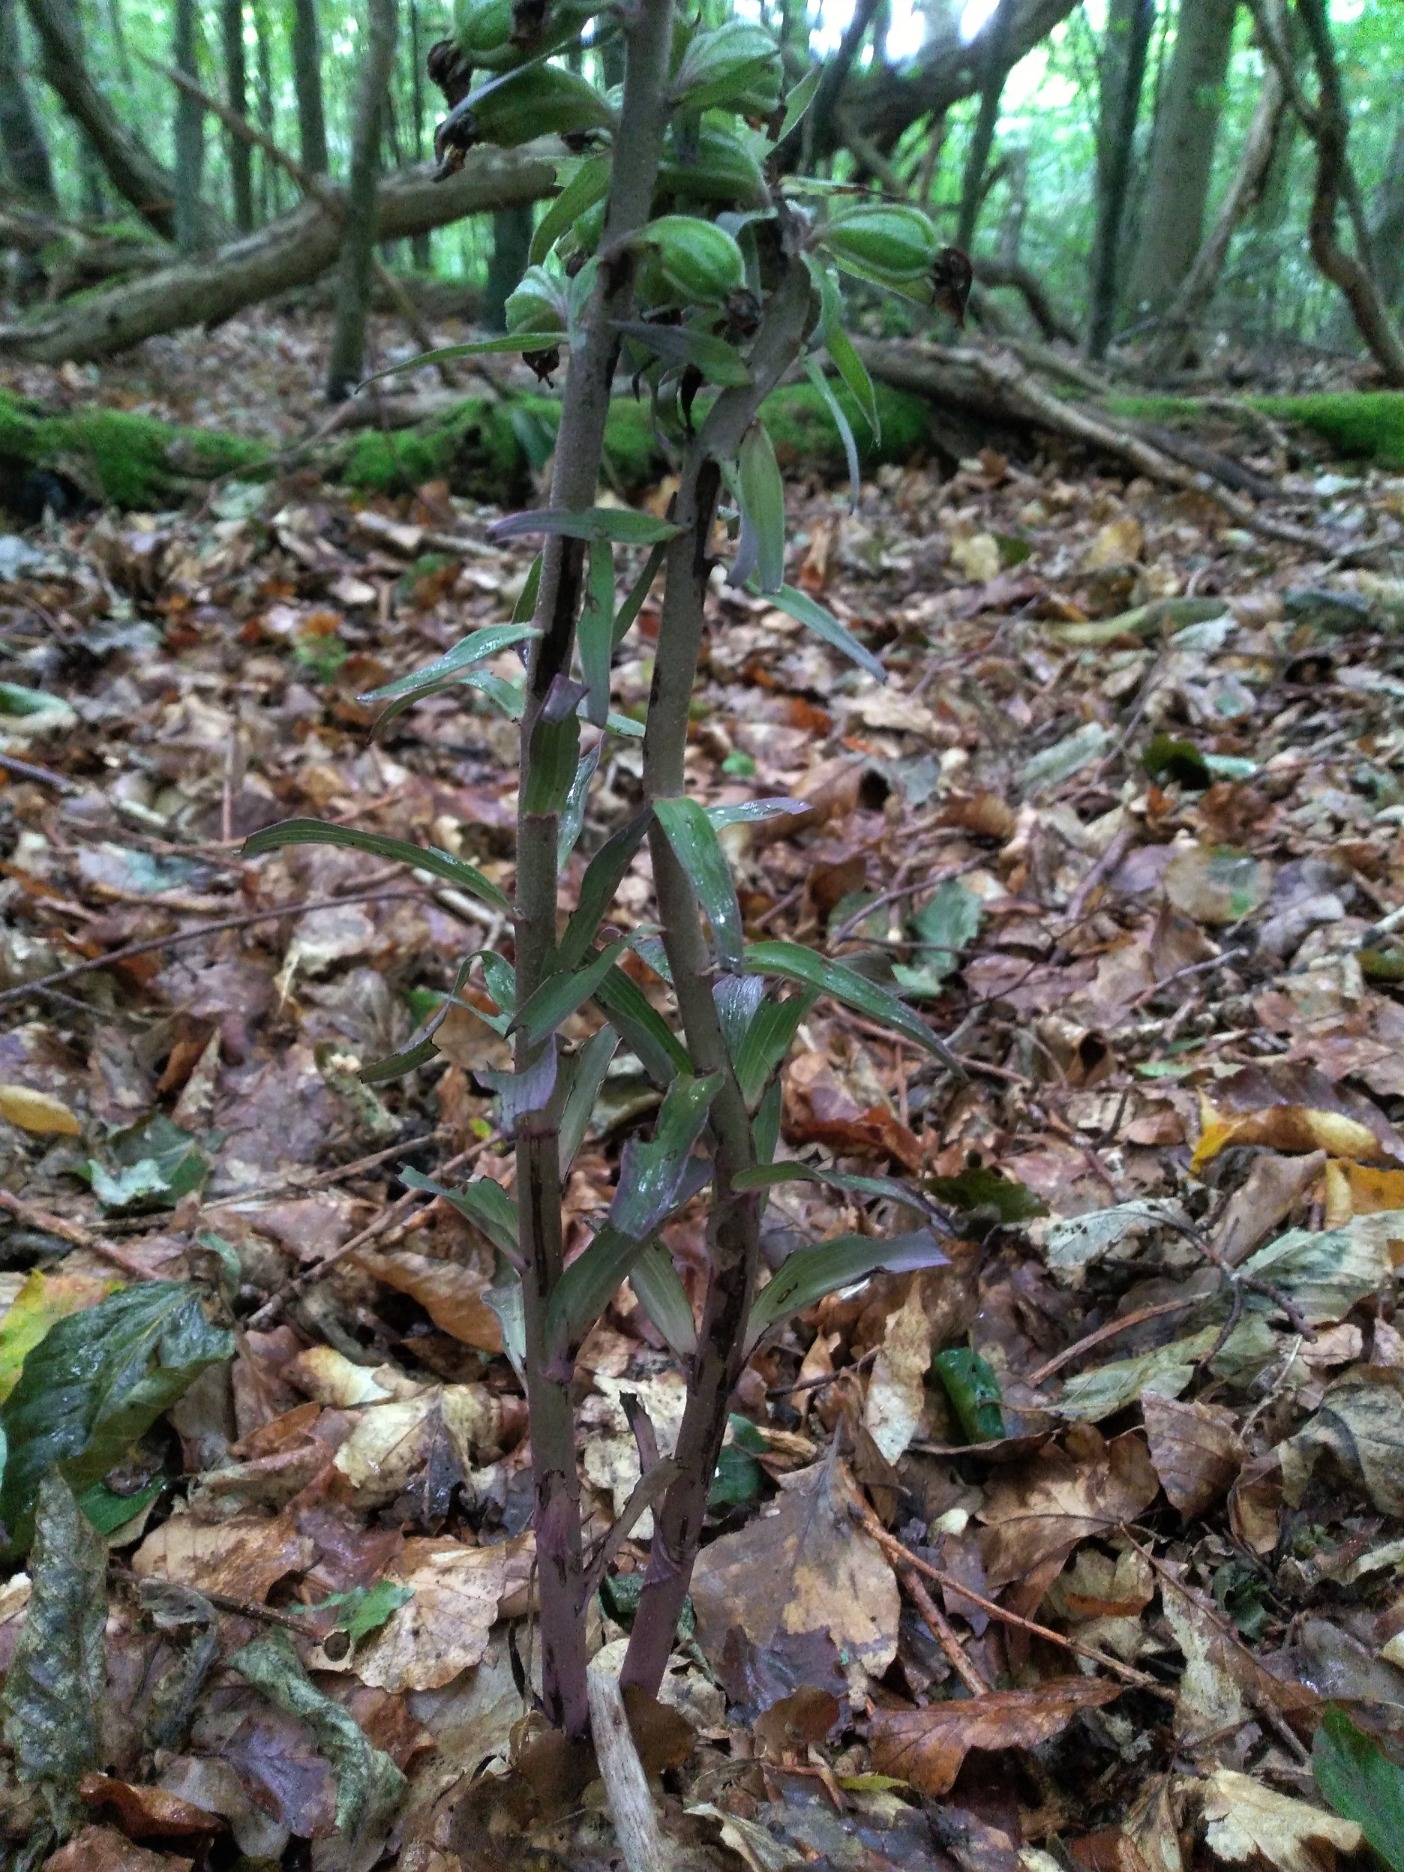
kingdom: Plantae
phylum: Tracheophyta
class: Liliopsida
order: Asparagales
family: Orchidaceae
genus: Epipactis
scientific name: Epipactis purpurata
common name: Tætblomstret hullæbe
